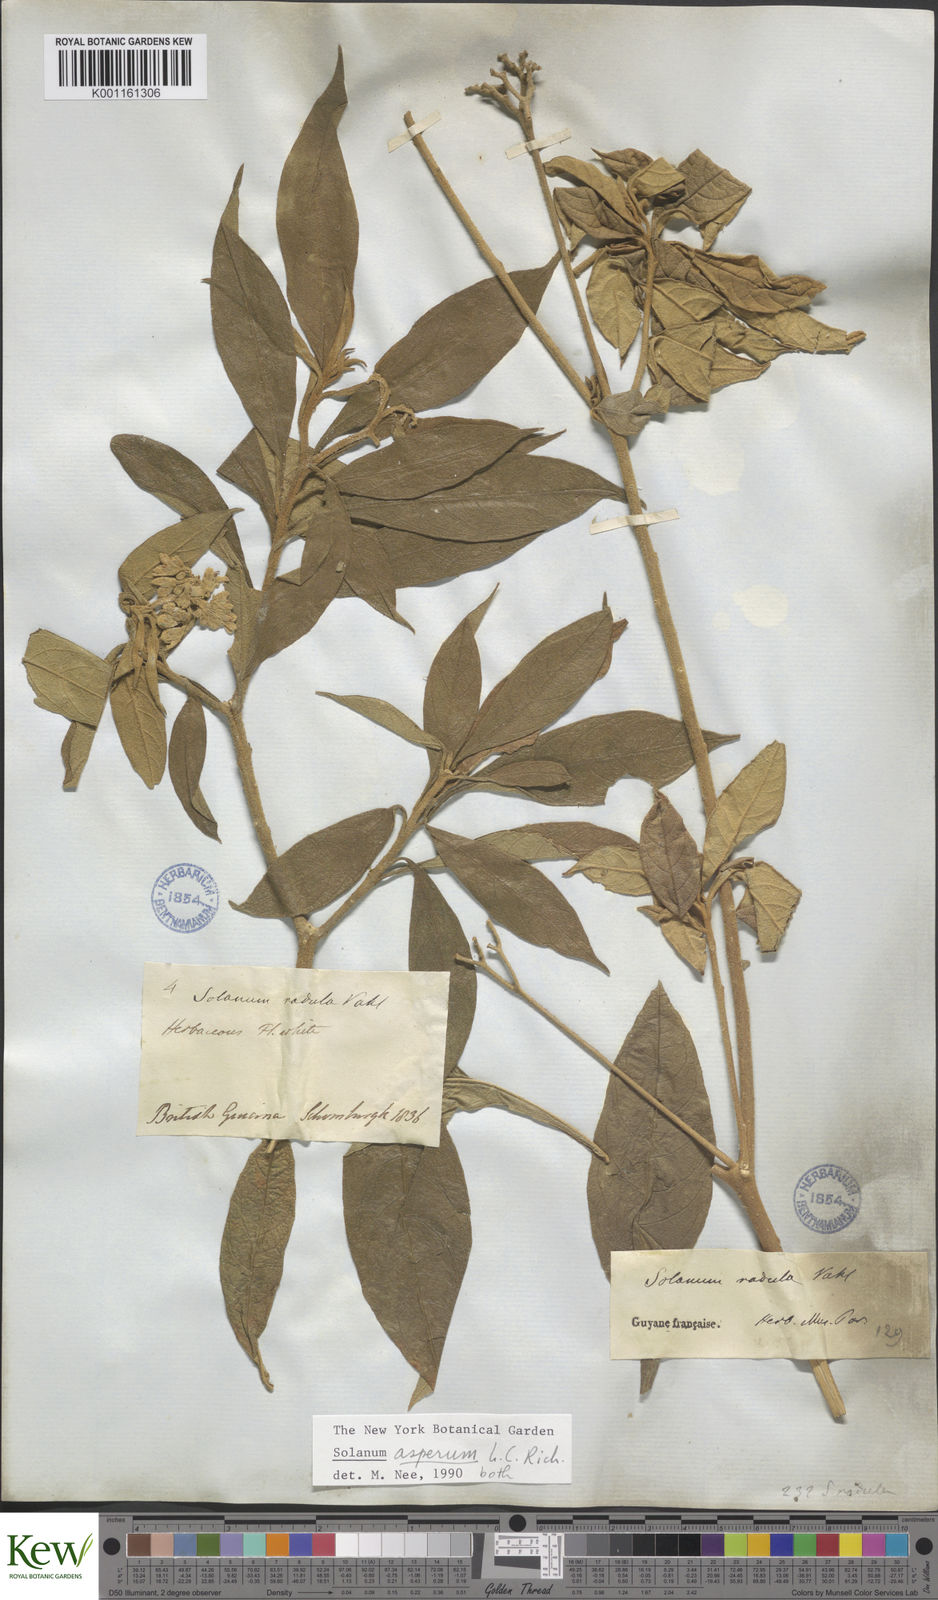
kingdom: Plantae
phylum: Tracheophyta
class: Magnoliopsida
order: Solanales
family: Solanaceae
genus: Solanum
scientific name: Solanum asperum
